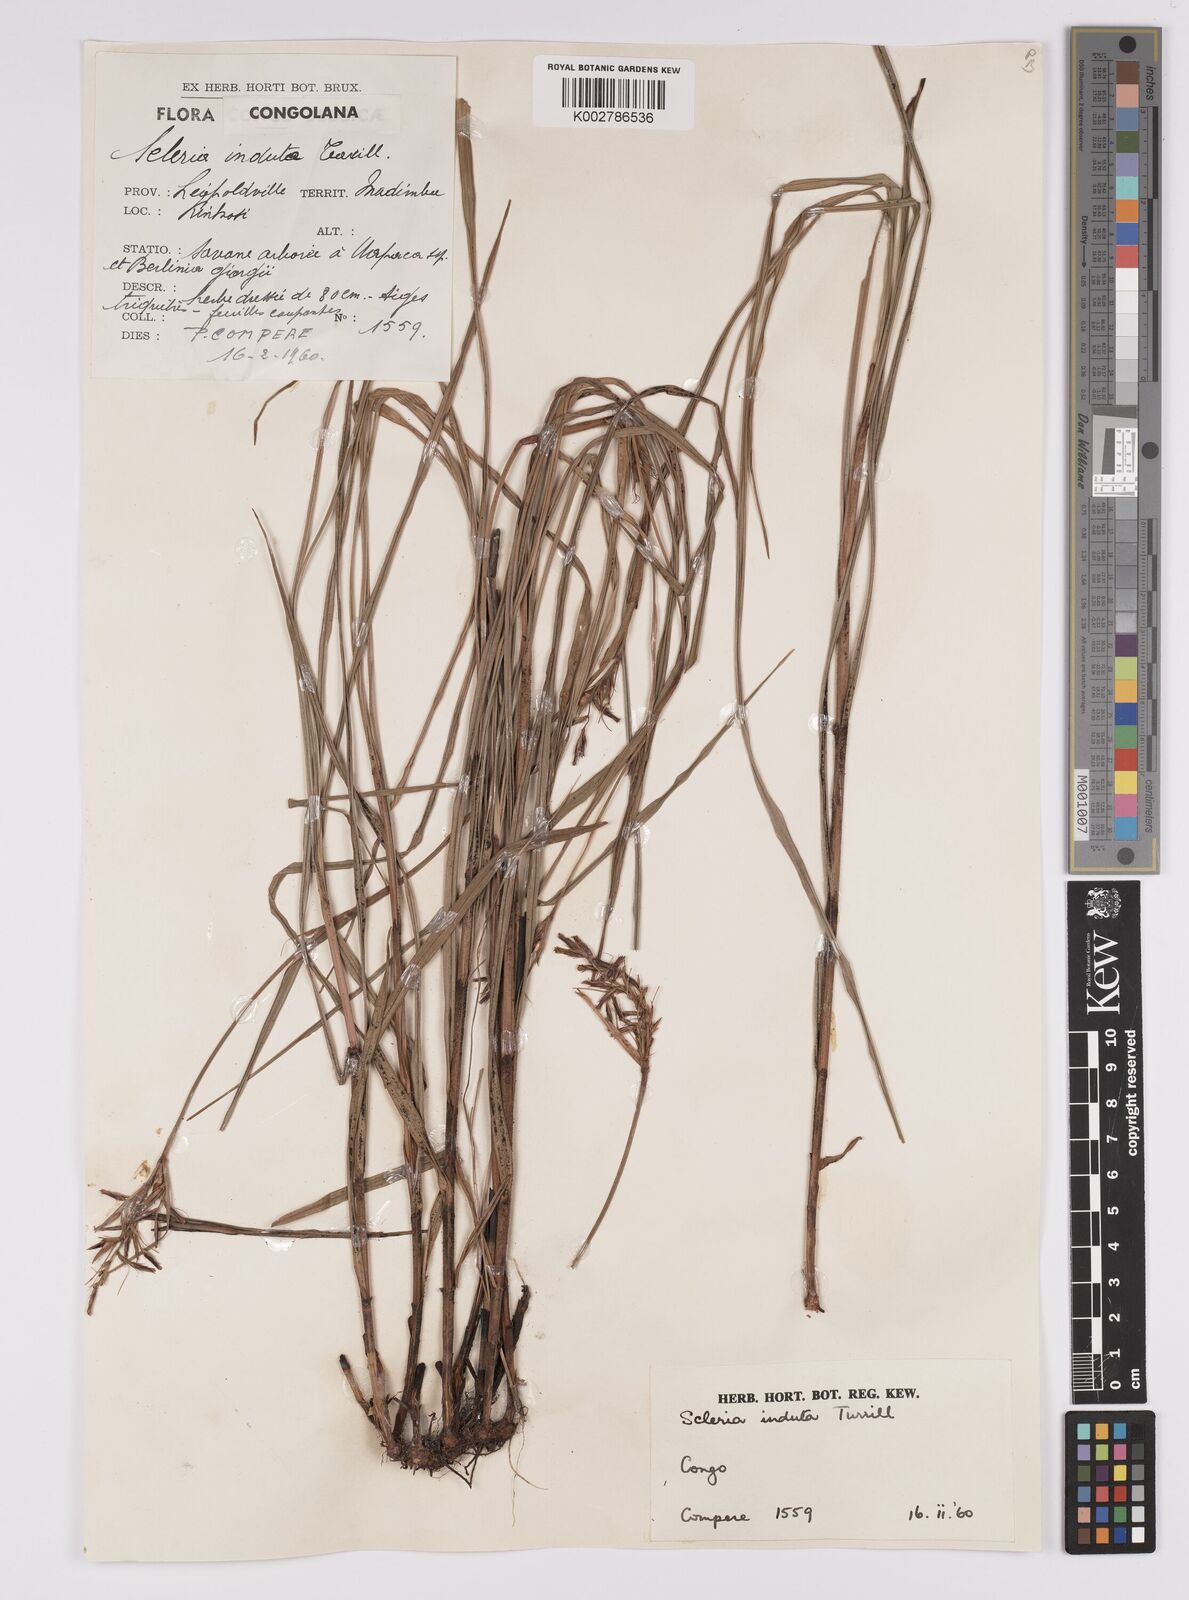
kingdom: Plantae
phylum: Tracheophyta
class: Liliopsida
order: Poales
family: Cyperaceae
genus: Scleria
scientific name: Scleria induta
